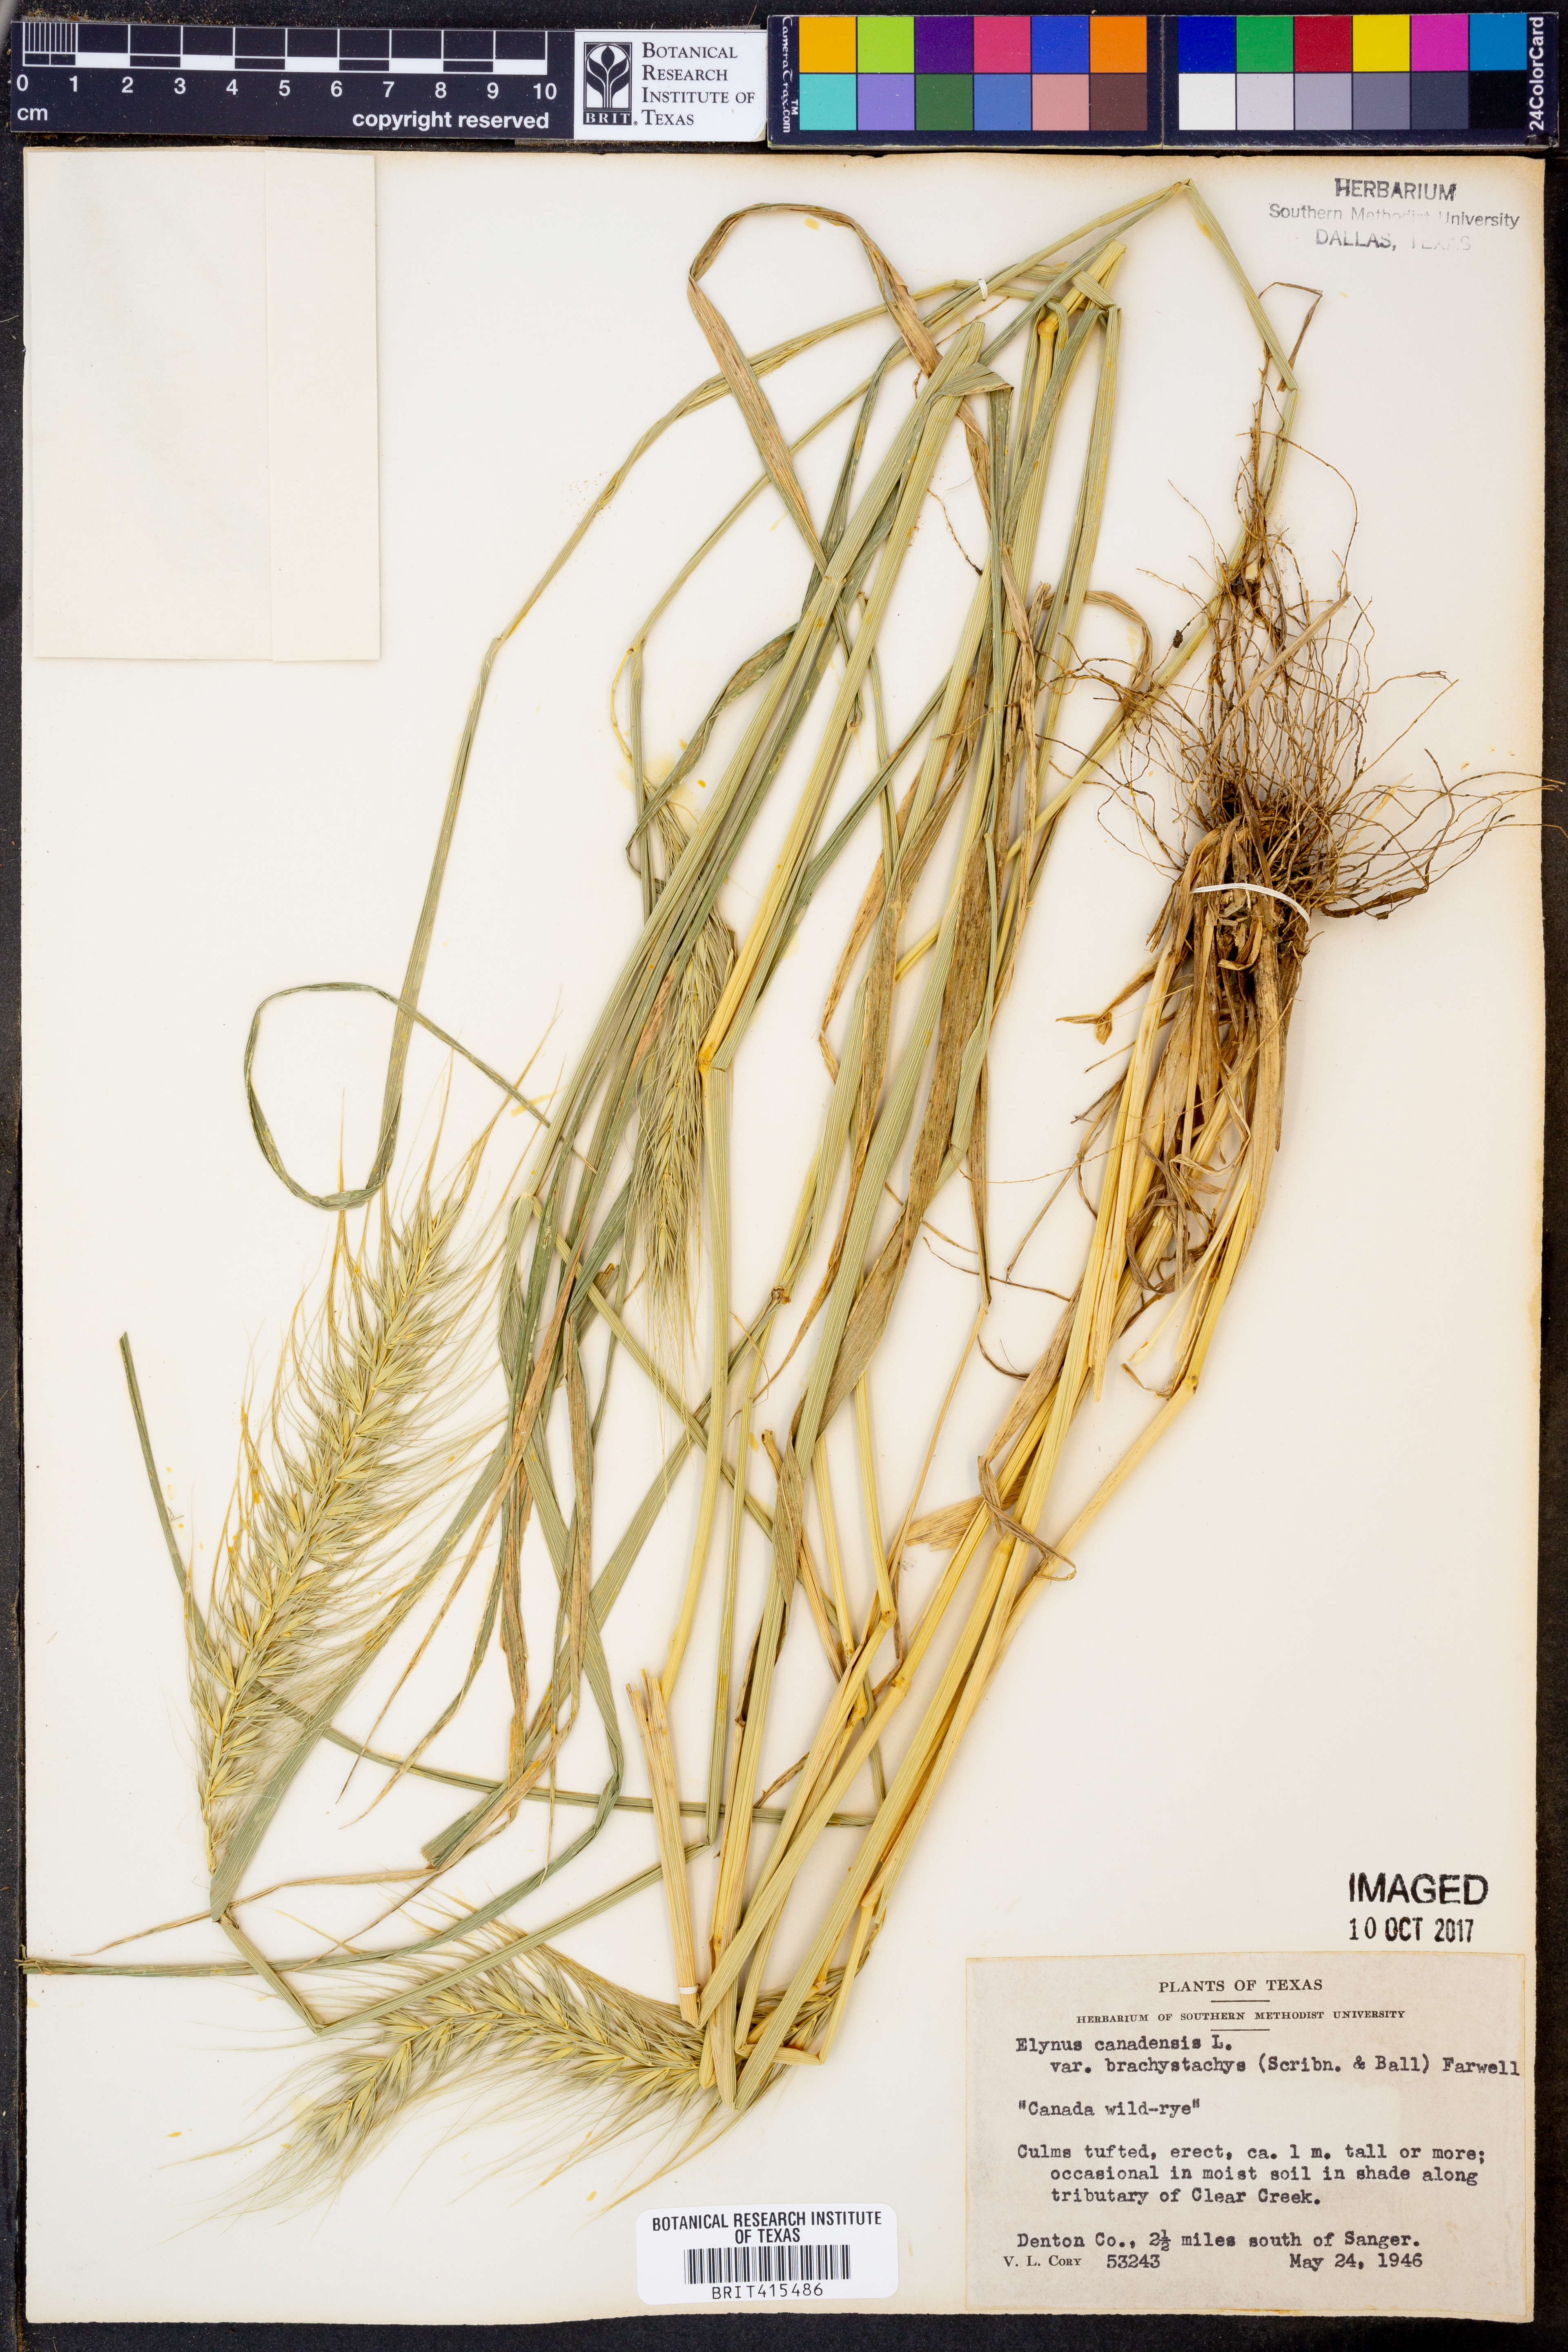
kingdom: Plantae
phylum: Tracheophyta
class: Liliopsida
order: Poales
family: Poaceae
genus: Elymus
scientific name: Elymus canadensis
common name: Canada wild rye
